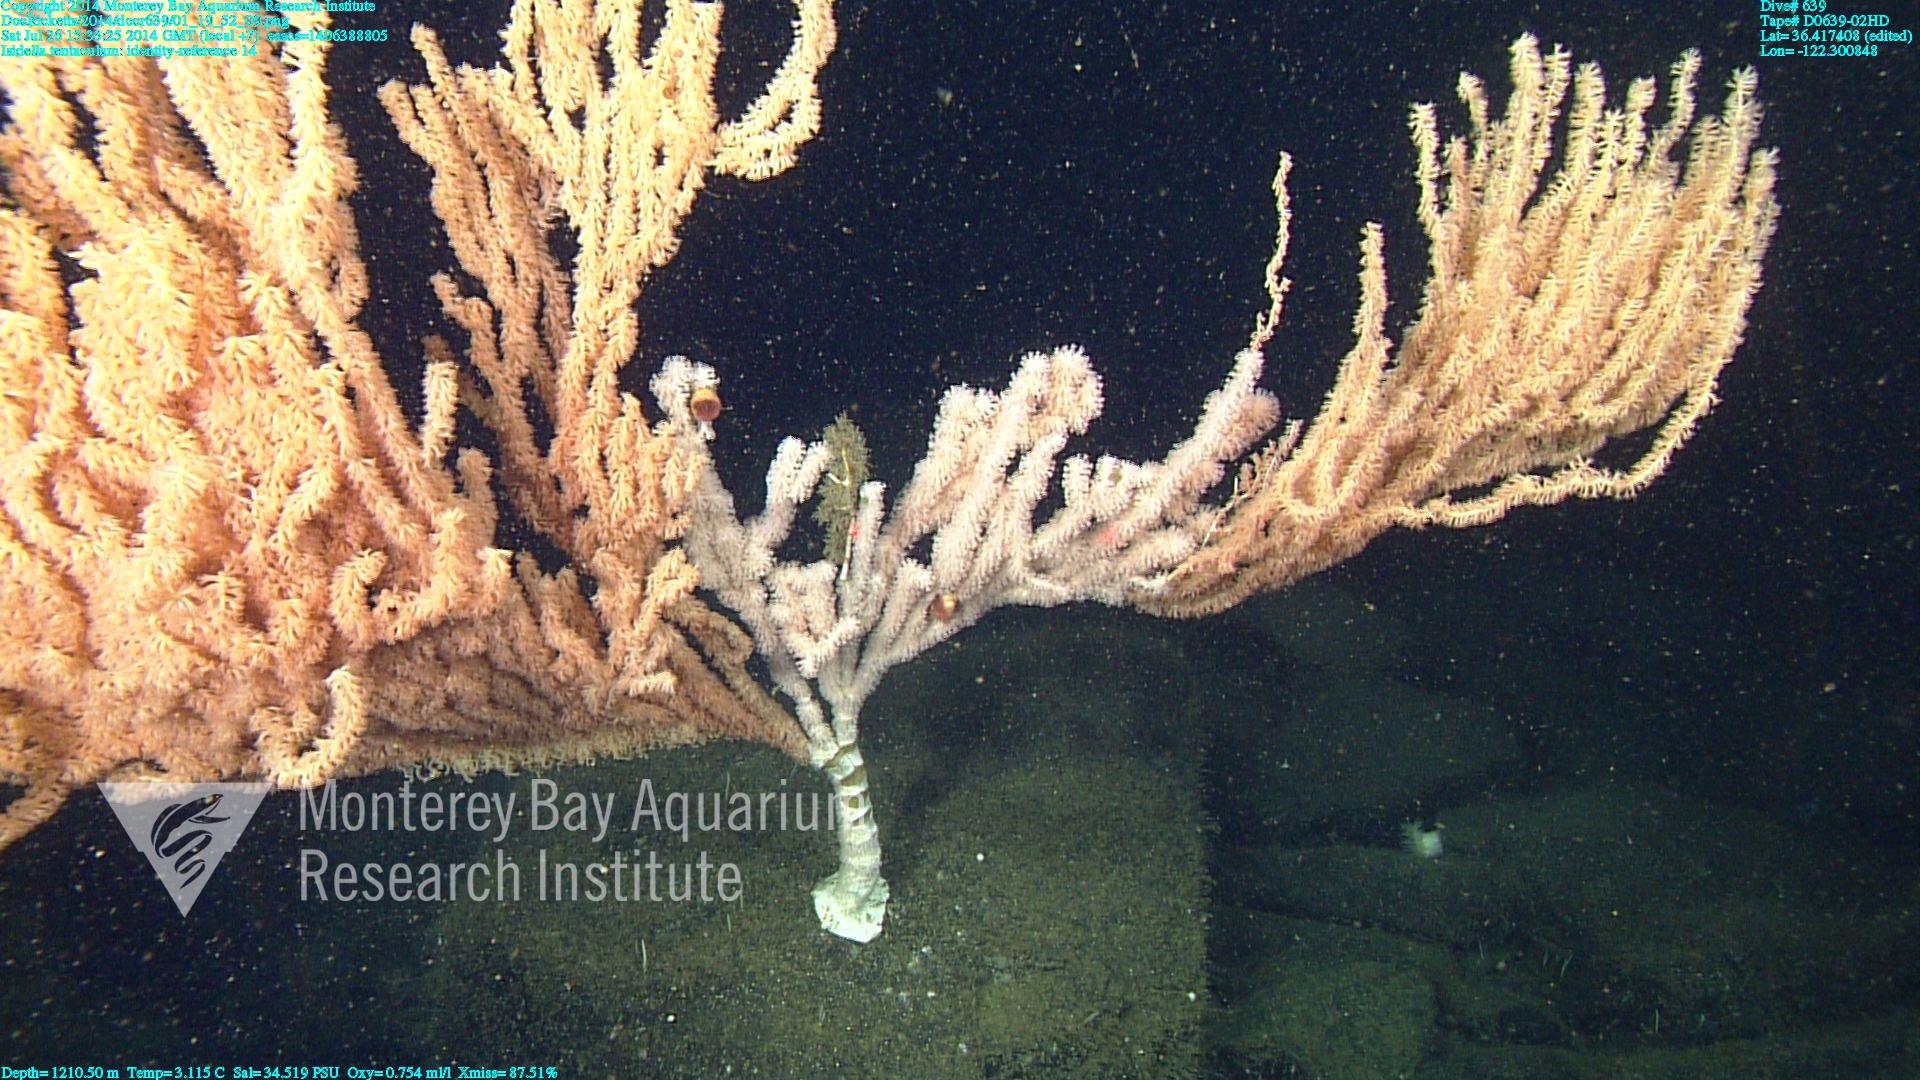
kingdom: Animalia
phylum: Cnidaria
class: Anthozoa
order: Scleralcyonacea
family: Keratoisididae
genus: Isidella
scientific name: Isidella tentaculum
